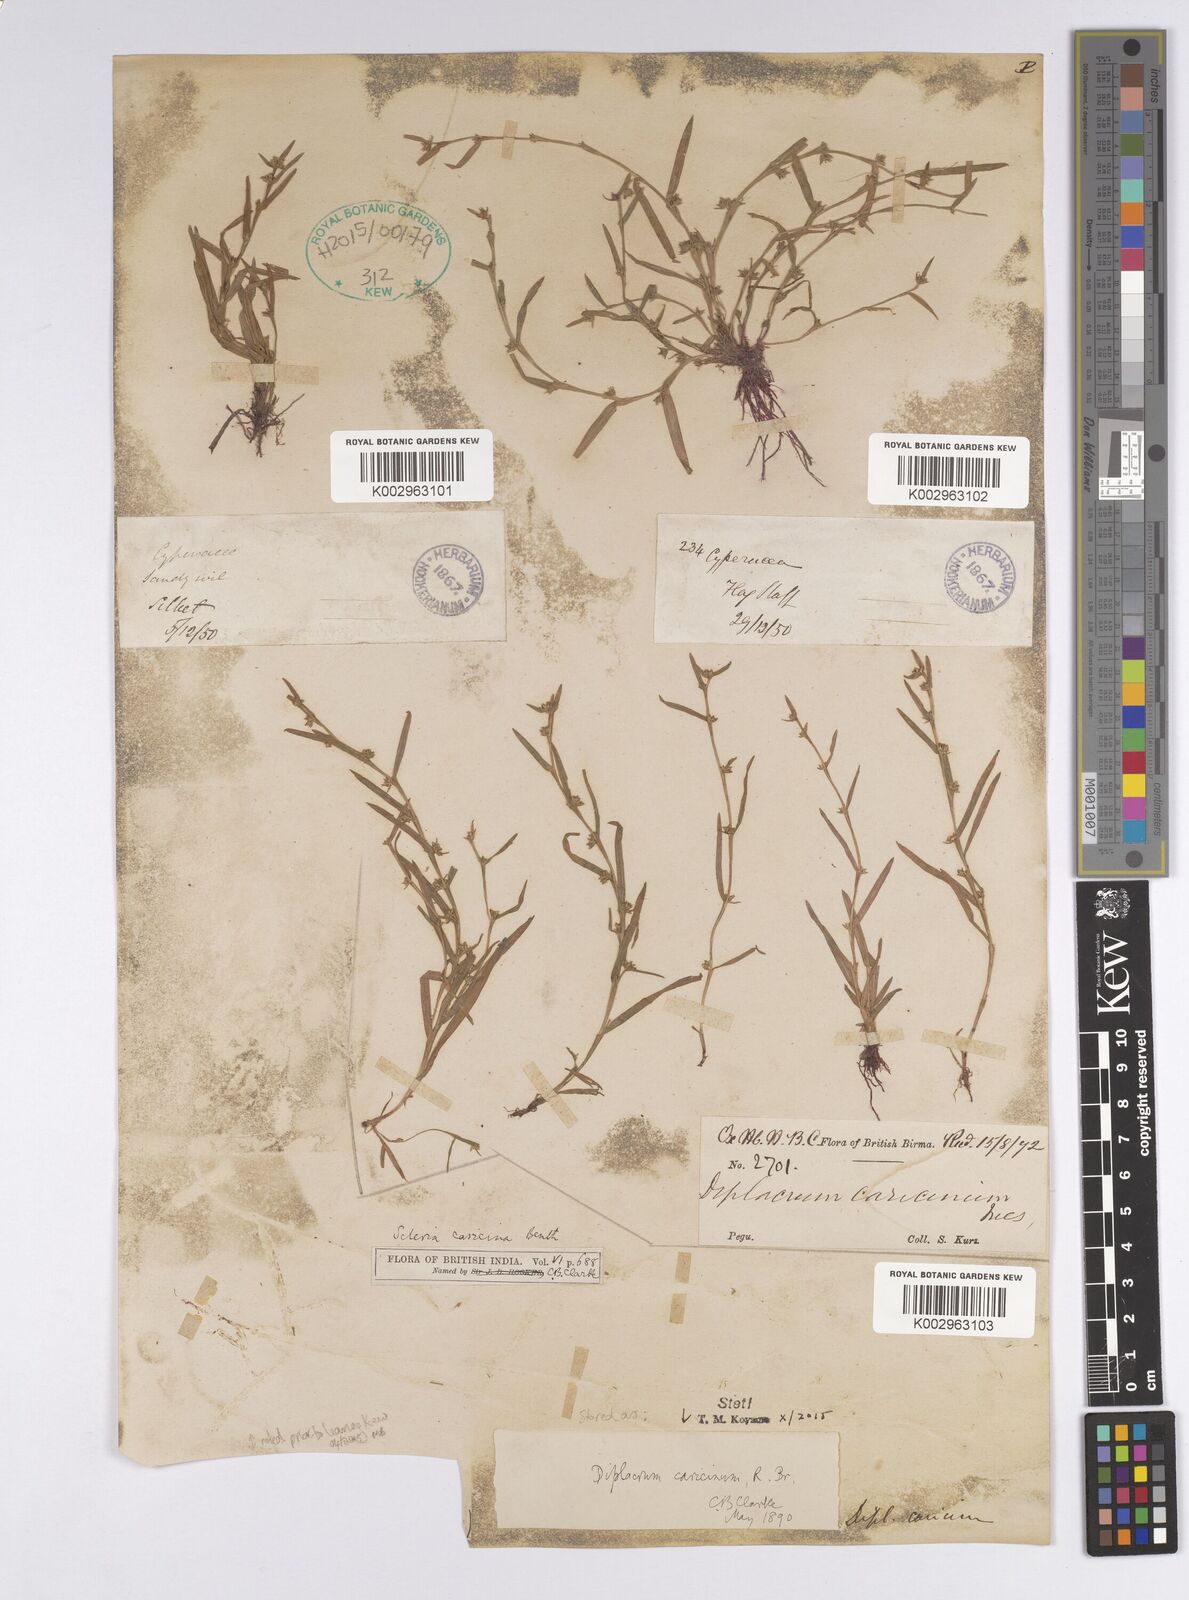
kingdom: Plantae
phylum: Tracheophyta
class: Liliopsida
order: Poales
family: Cyperaceae
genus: Diplacrum
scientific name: Diplacrum caricinum
